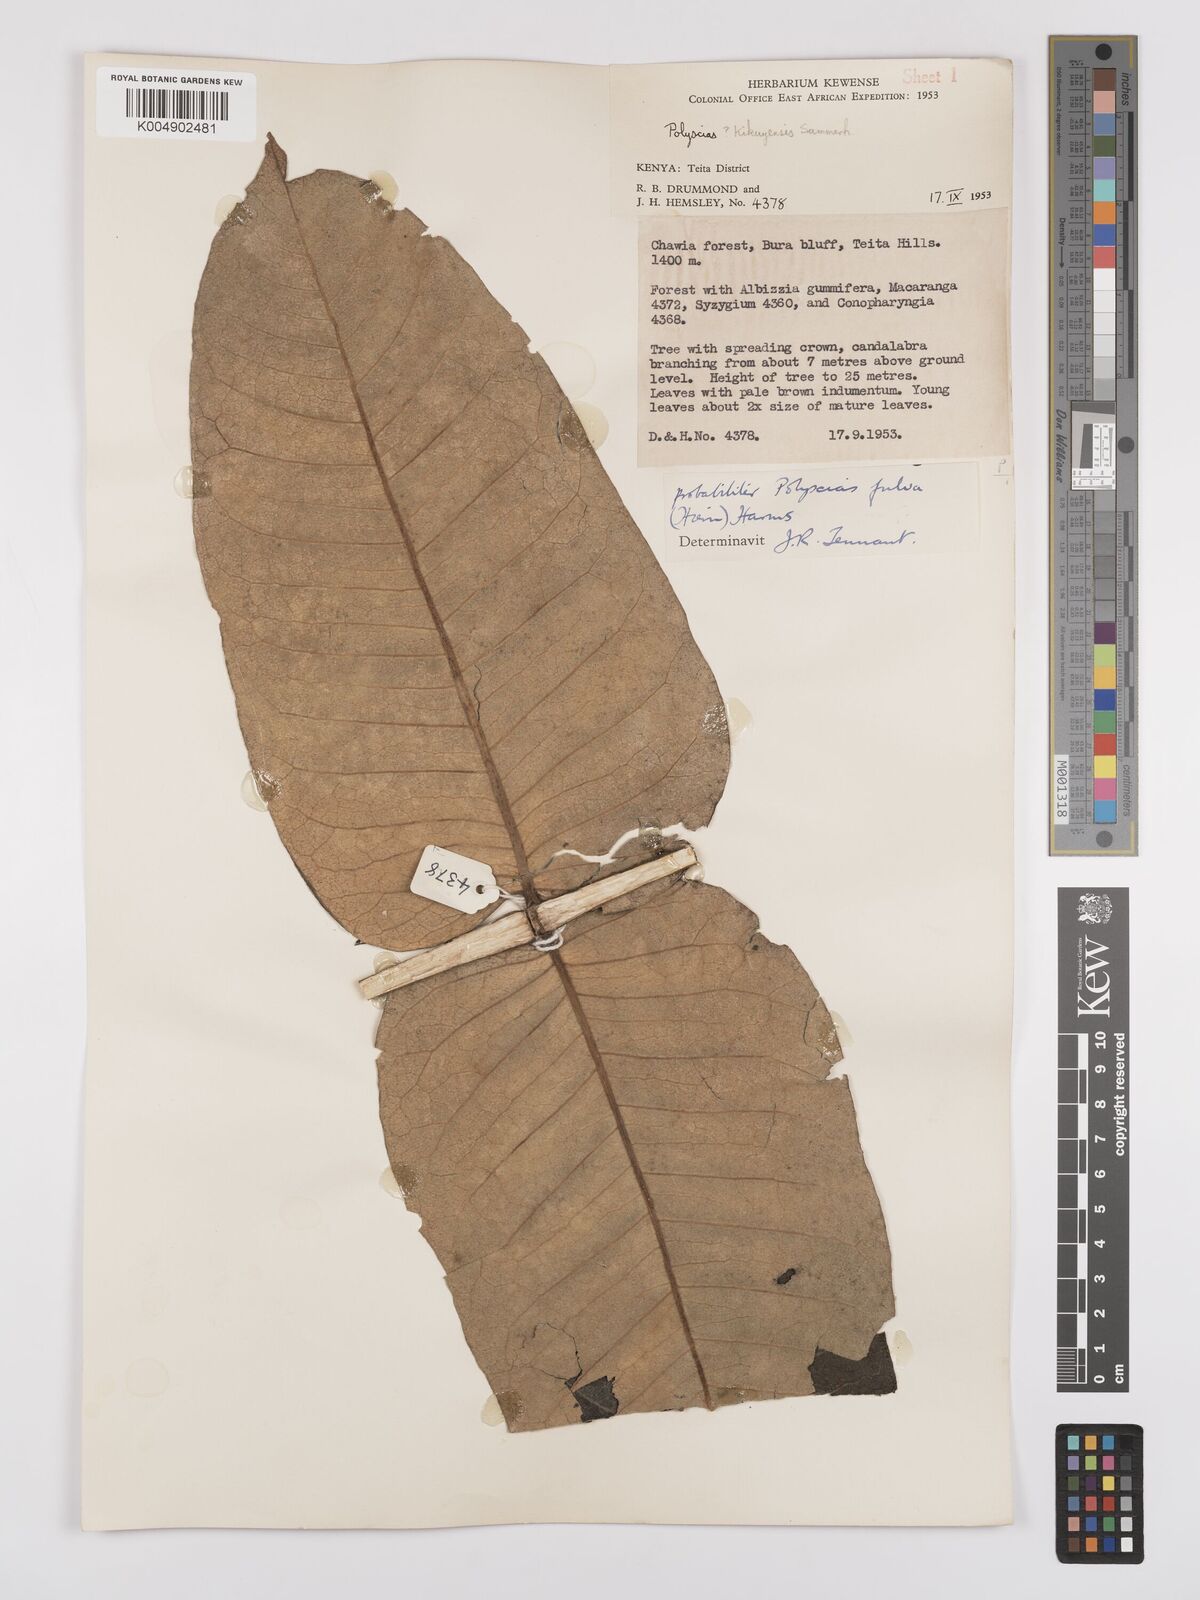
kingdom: Plantae
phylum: Tracheophyta
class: Magnoliopsida
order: Apiales
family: Araliaceae
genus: Polyscias
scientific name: Polyscias fulva
